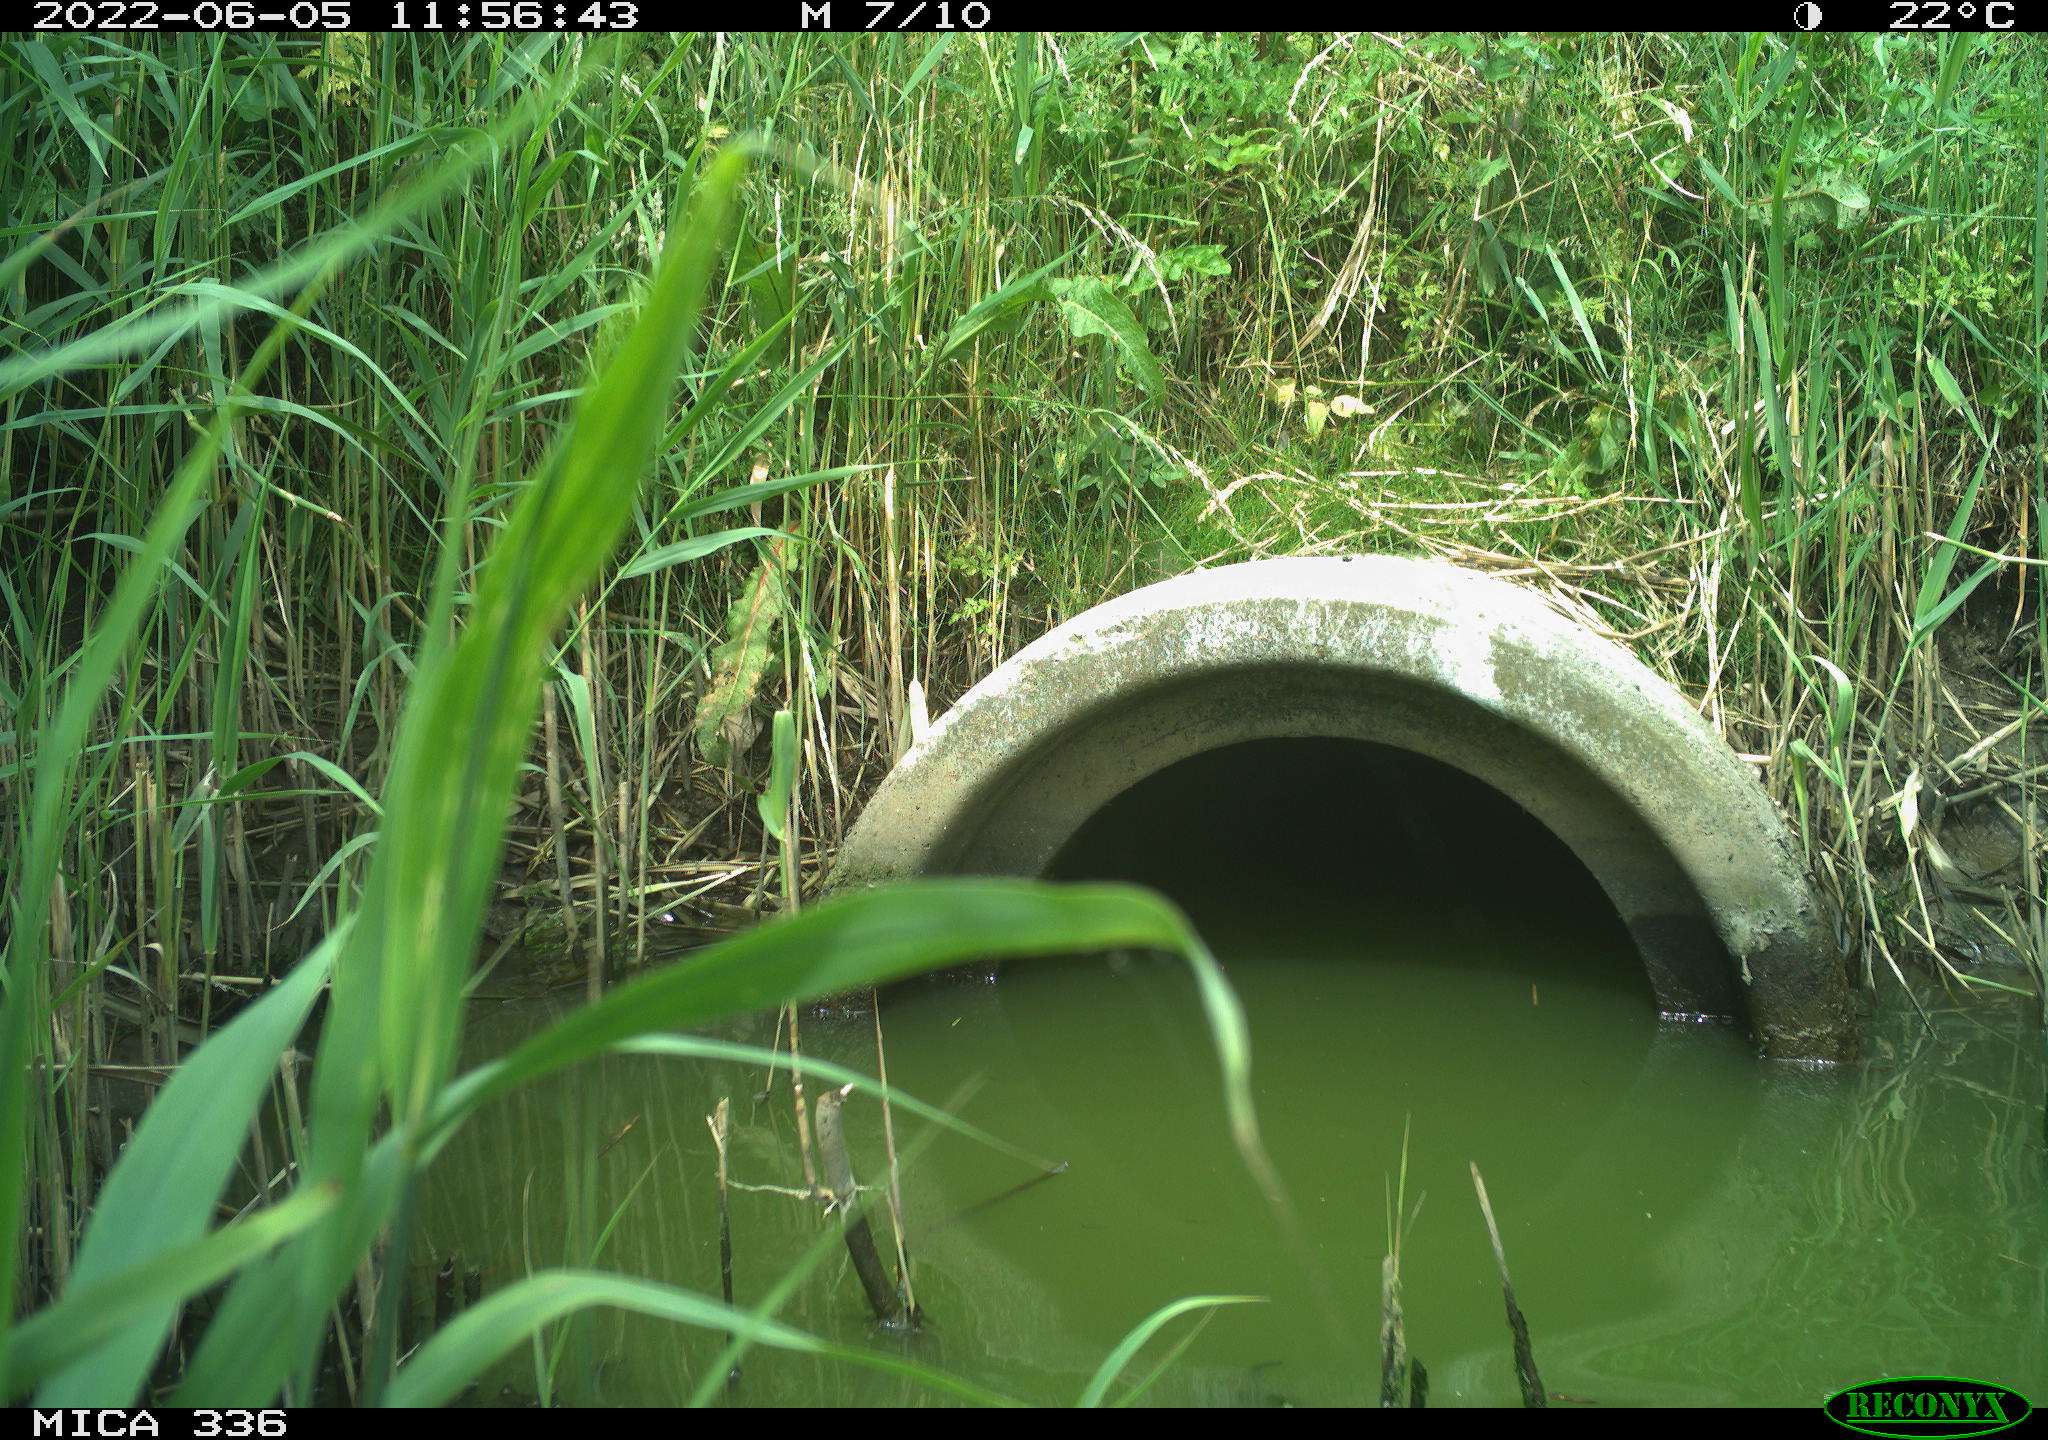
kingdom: Animalia
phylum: Chordata
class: Aves
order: Pelecaniformes
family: Ardeidae
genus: Ardea
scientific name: Ardea cinerea
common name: Grey heron
